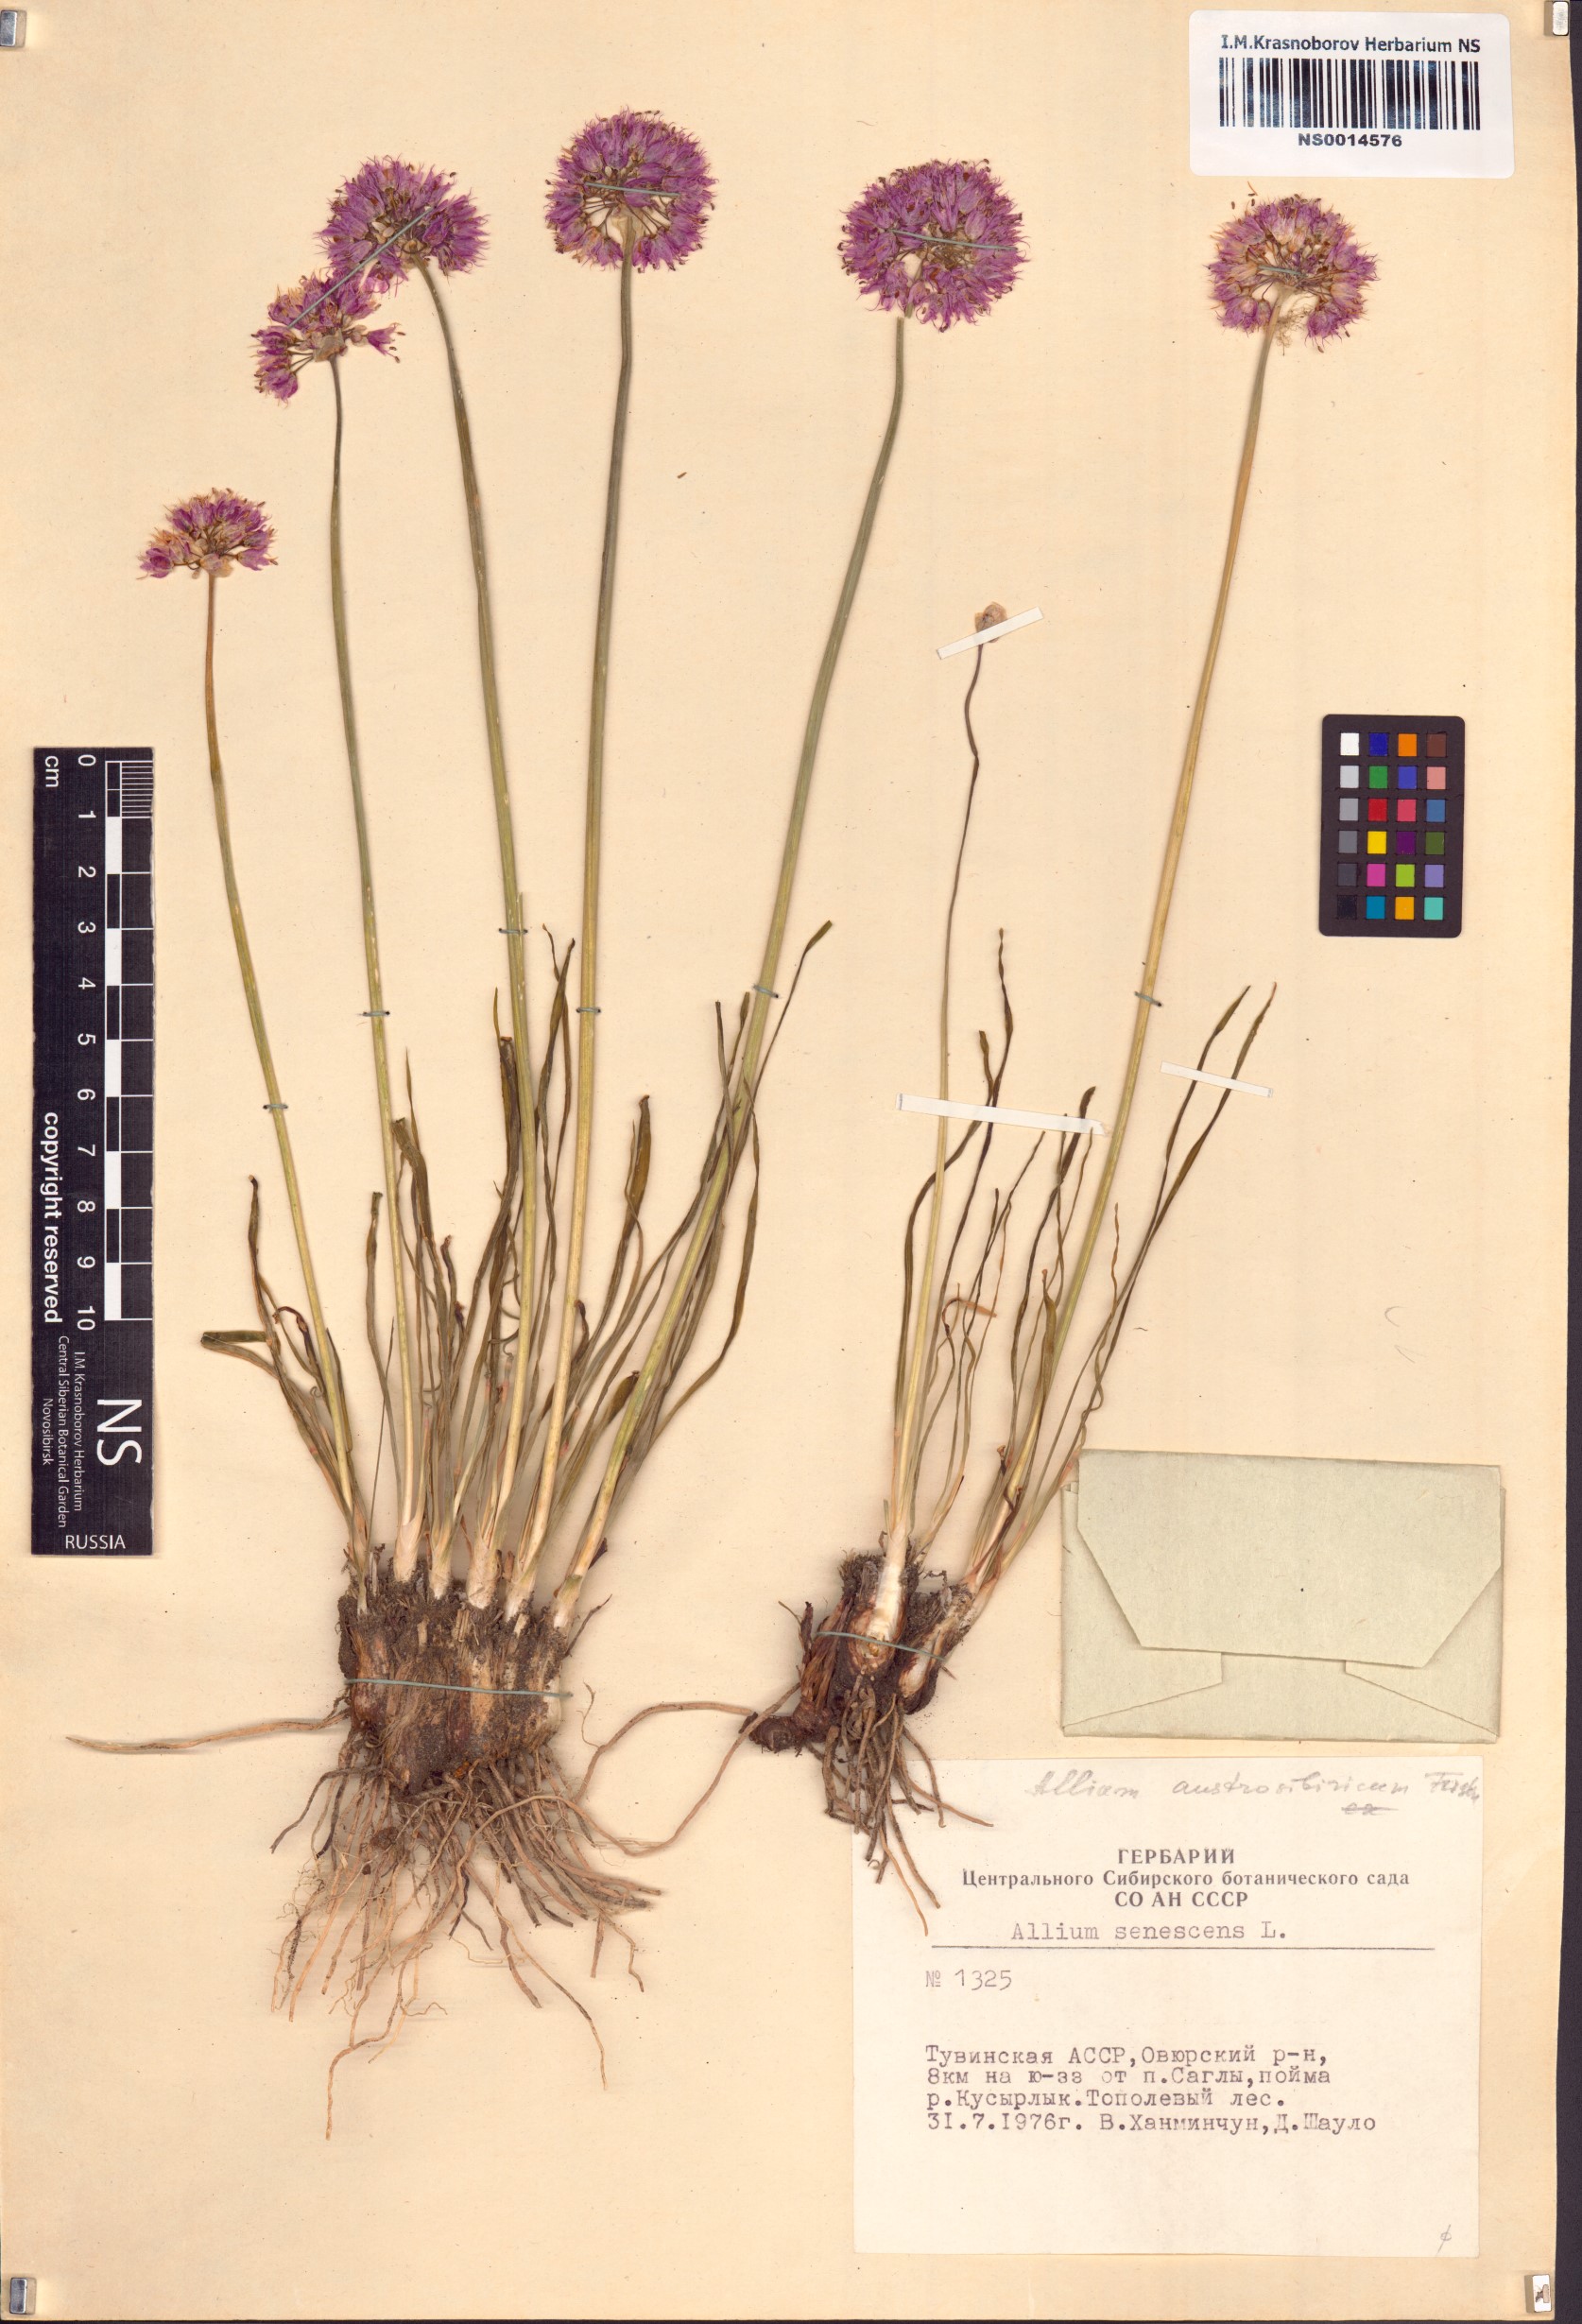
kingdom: Plantae
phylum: Tracheophyta
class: Liliopsida
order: Asparagales
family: Amaryllidaceae
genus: Allium
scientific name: Allium austrosibiricum
